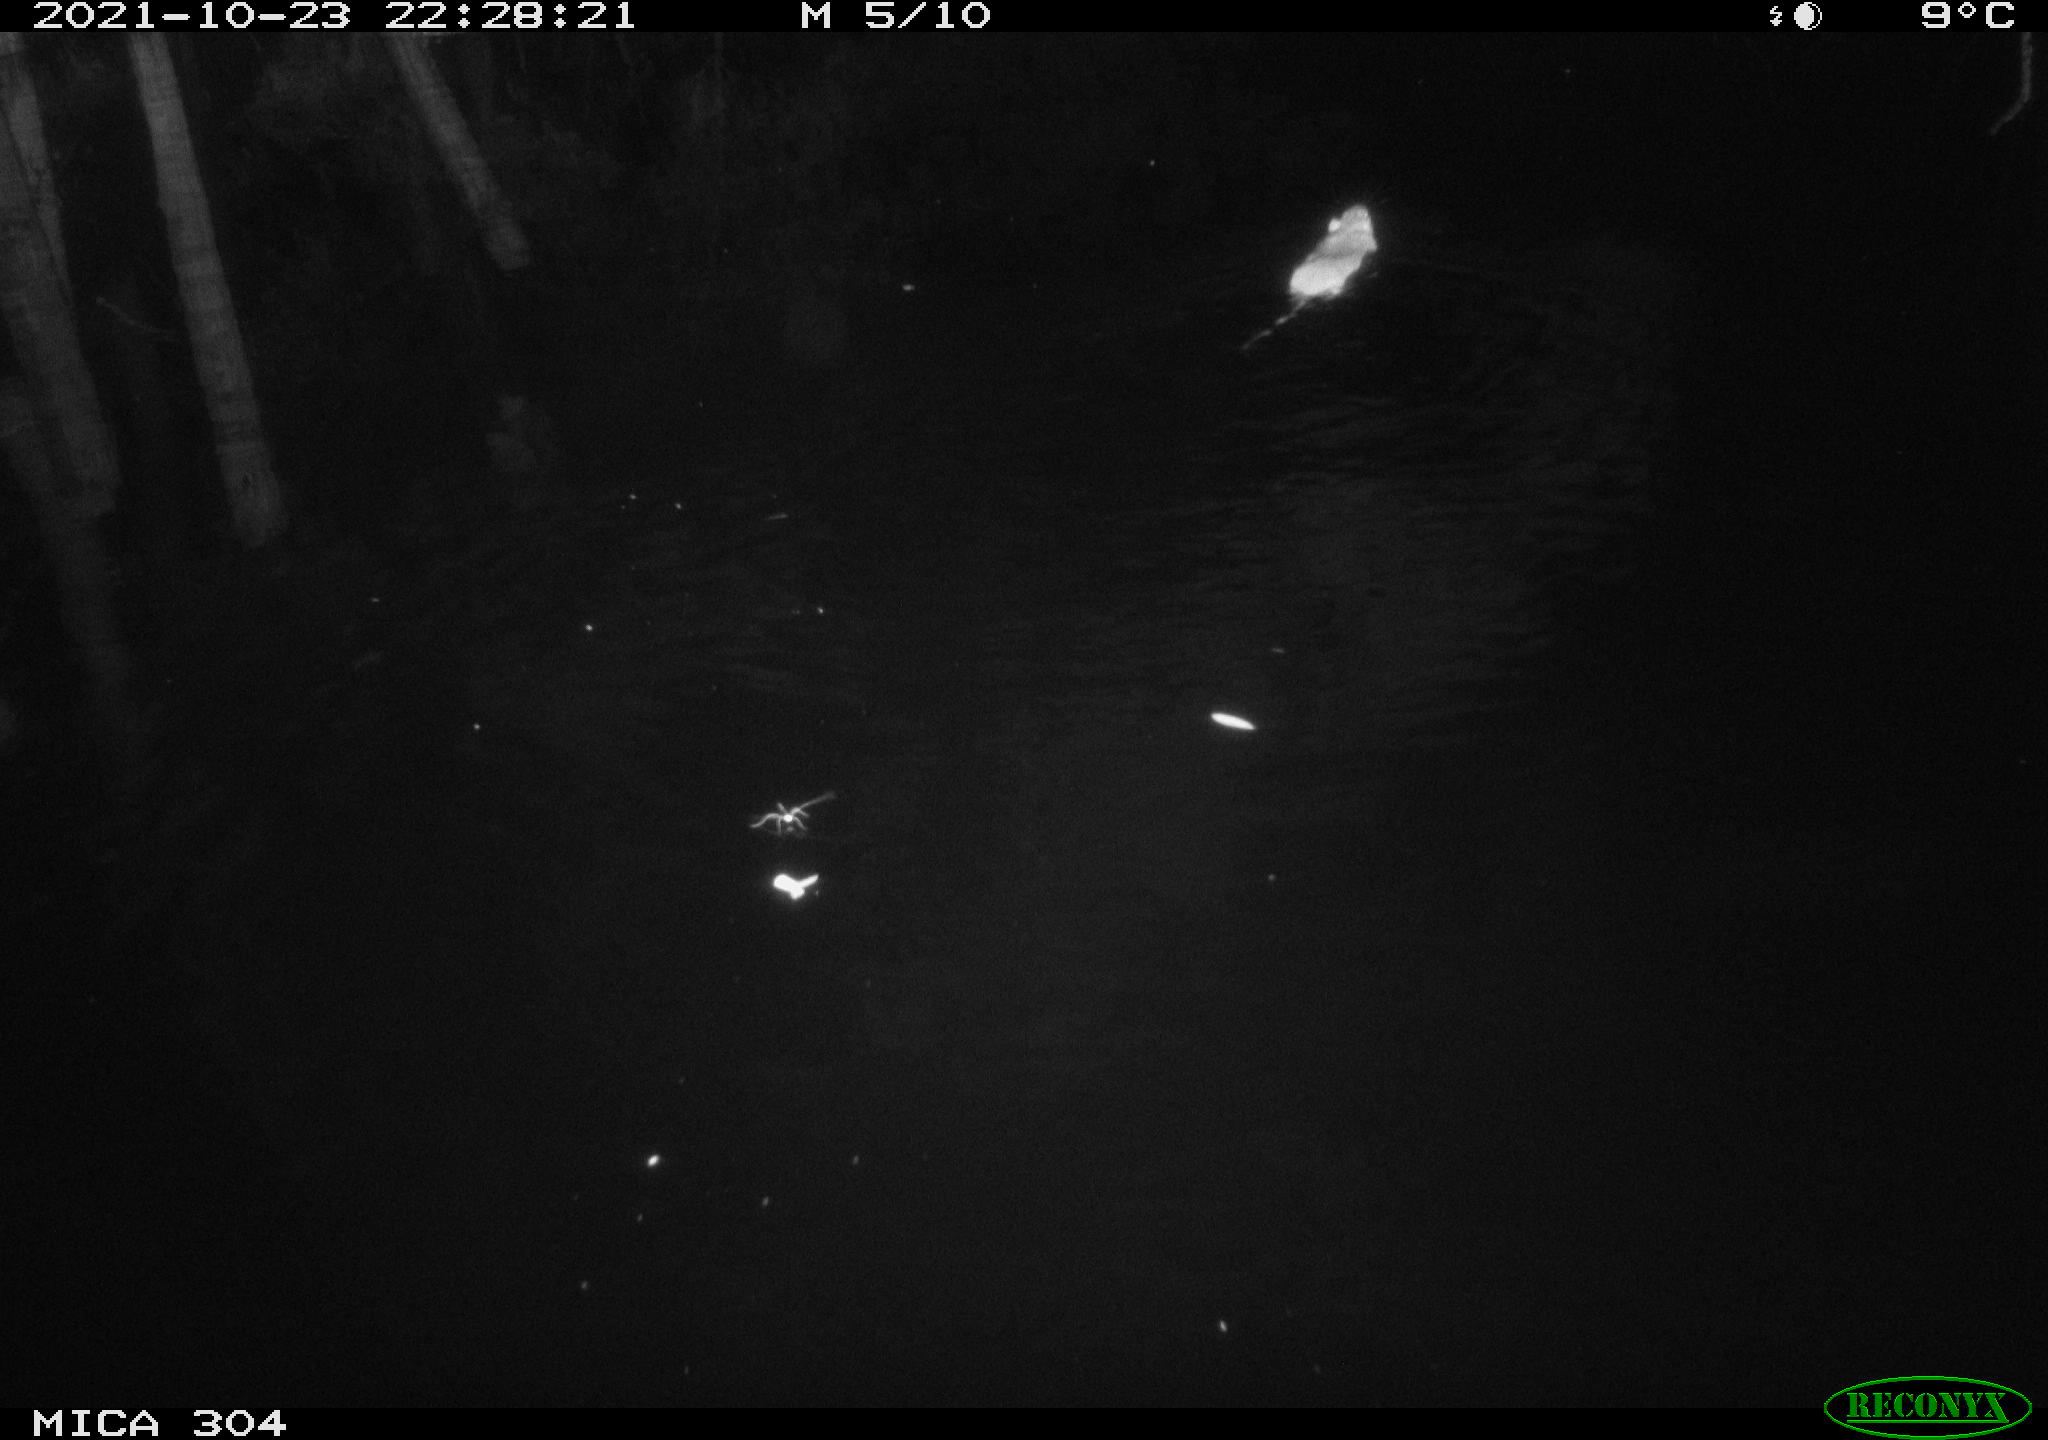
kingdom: Animalia
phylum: Chordata
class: Mammalia
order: Rodentia
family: Muridae
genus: Rattus
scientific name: Rattus norvegicus
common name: Brown rat
